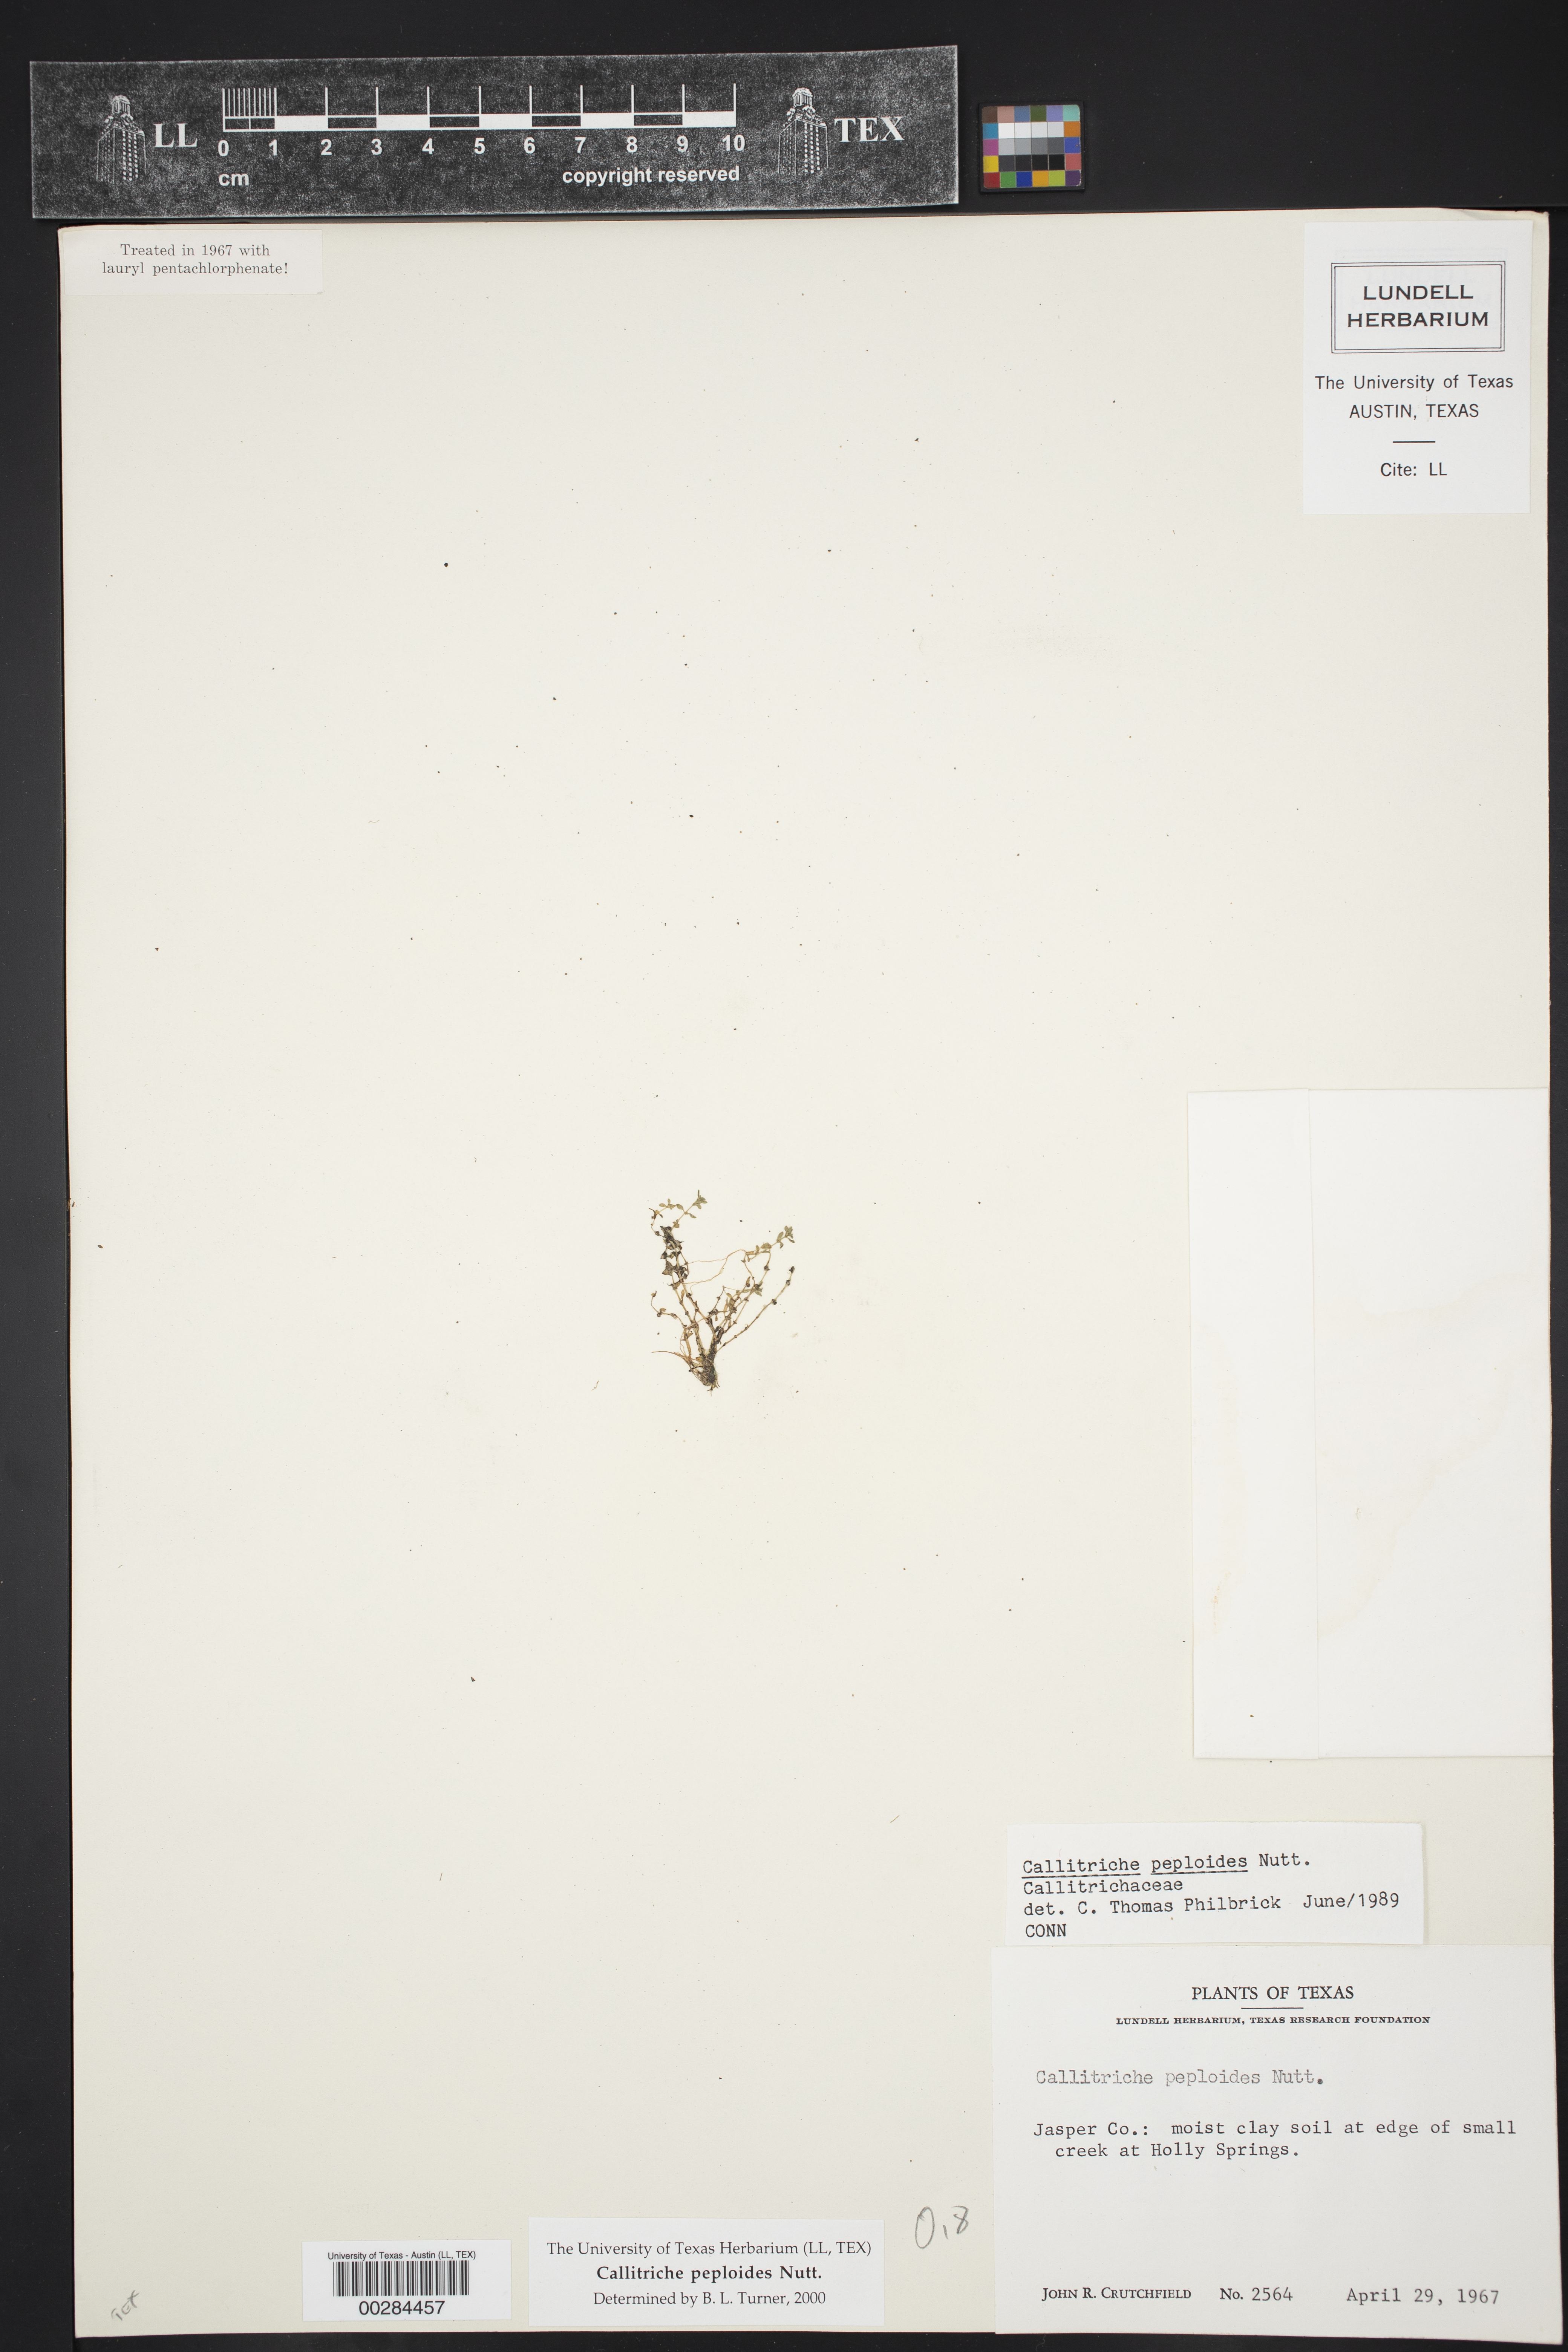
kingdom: Plantae
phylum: Tracheophyta
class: Magnoliopsida
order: Lamiales
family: Plantaginaceae
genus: Callitriche
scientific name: Callitriche peploides
